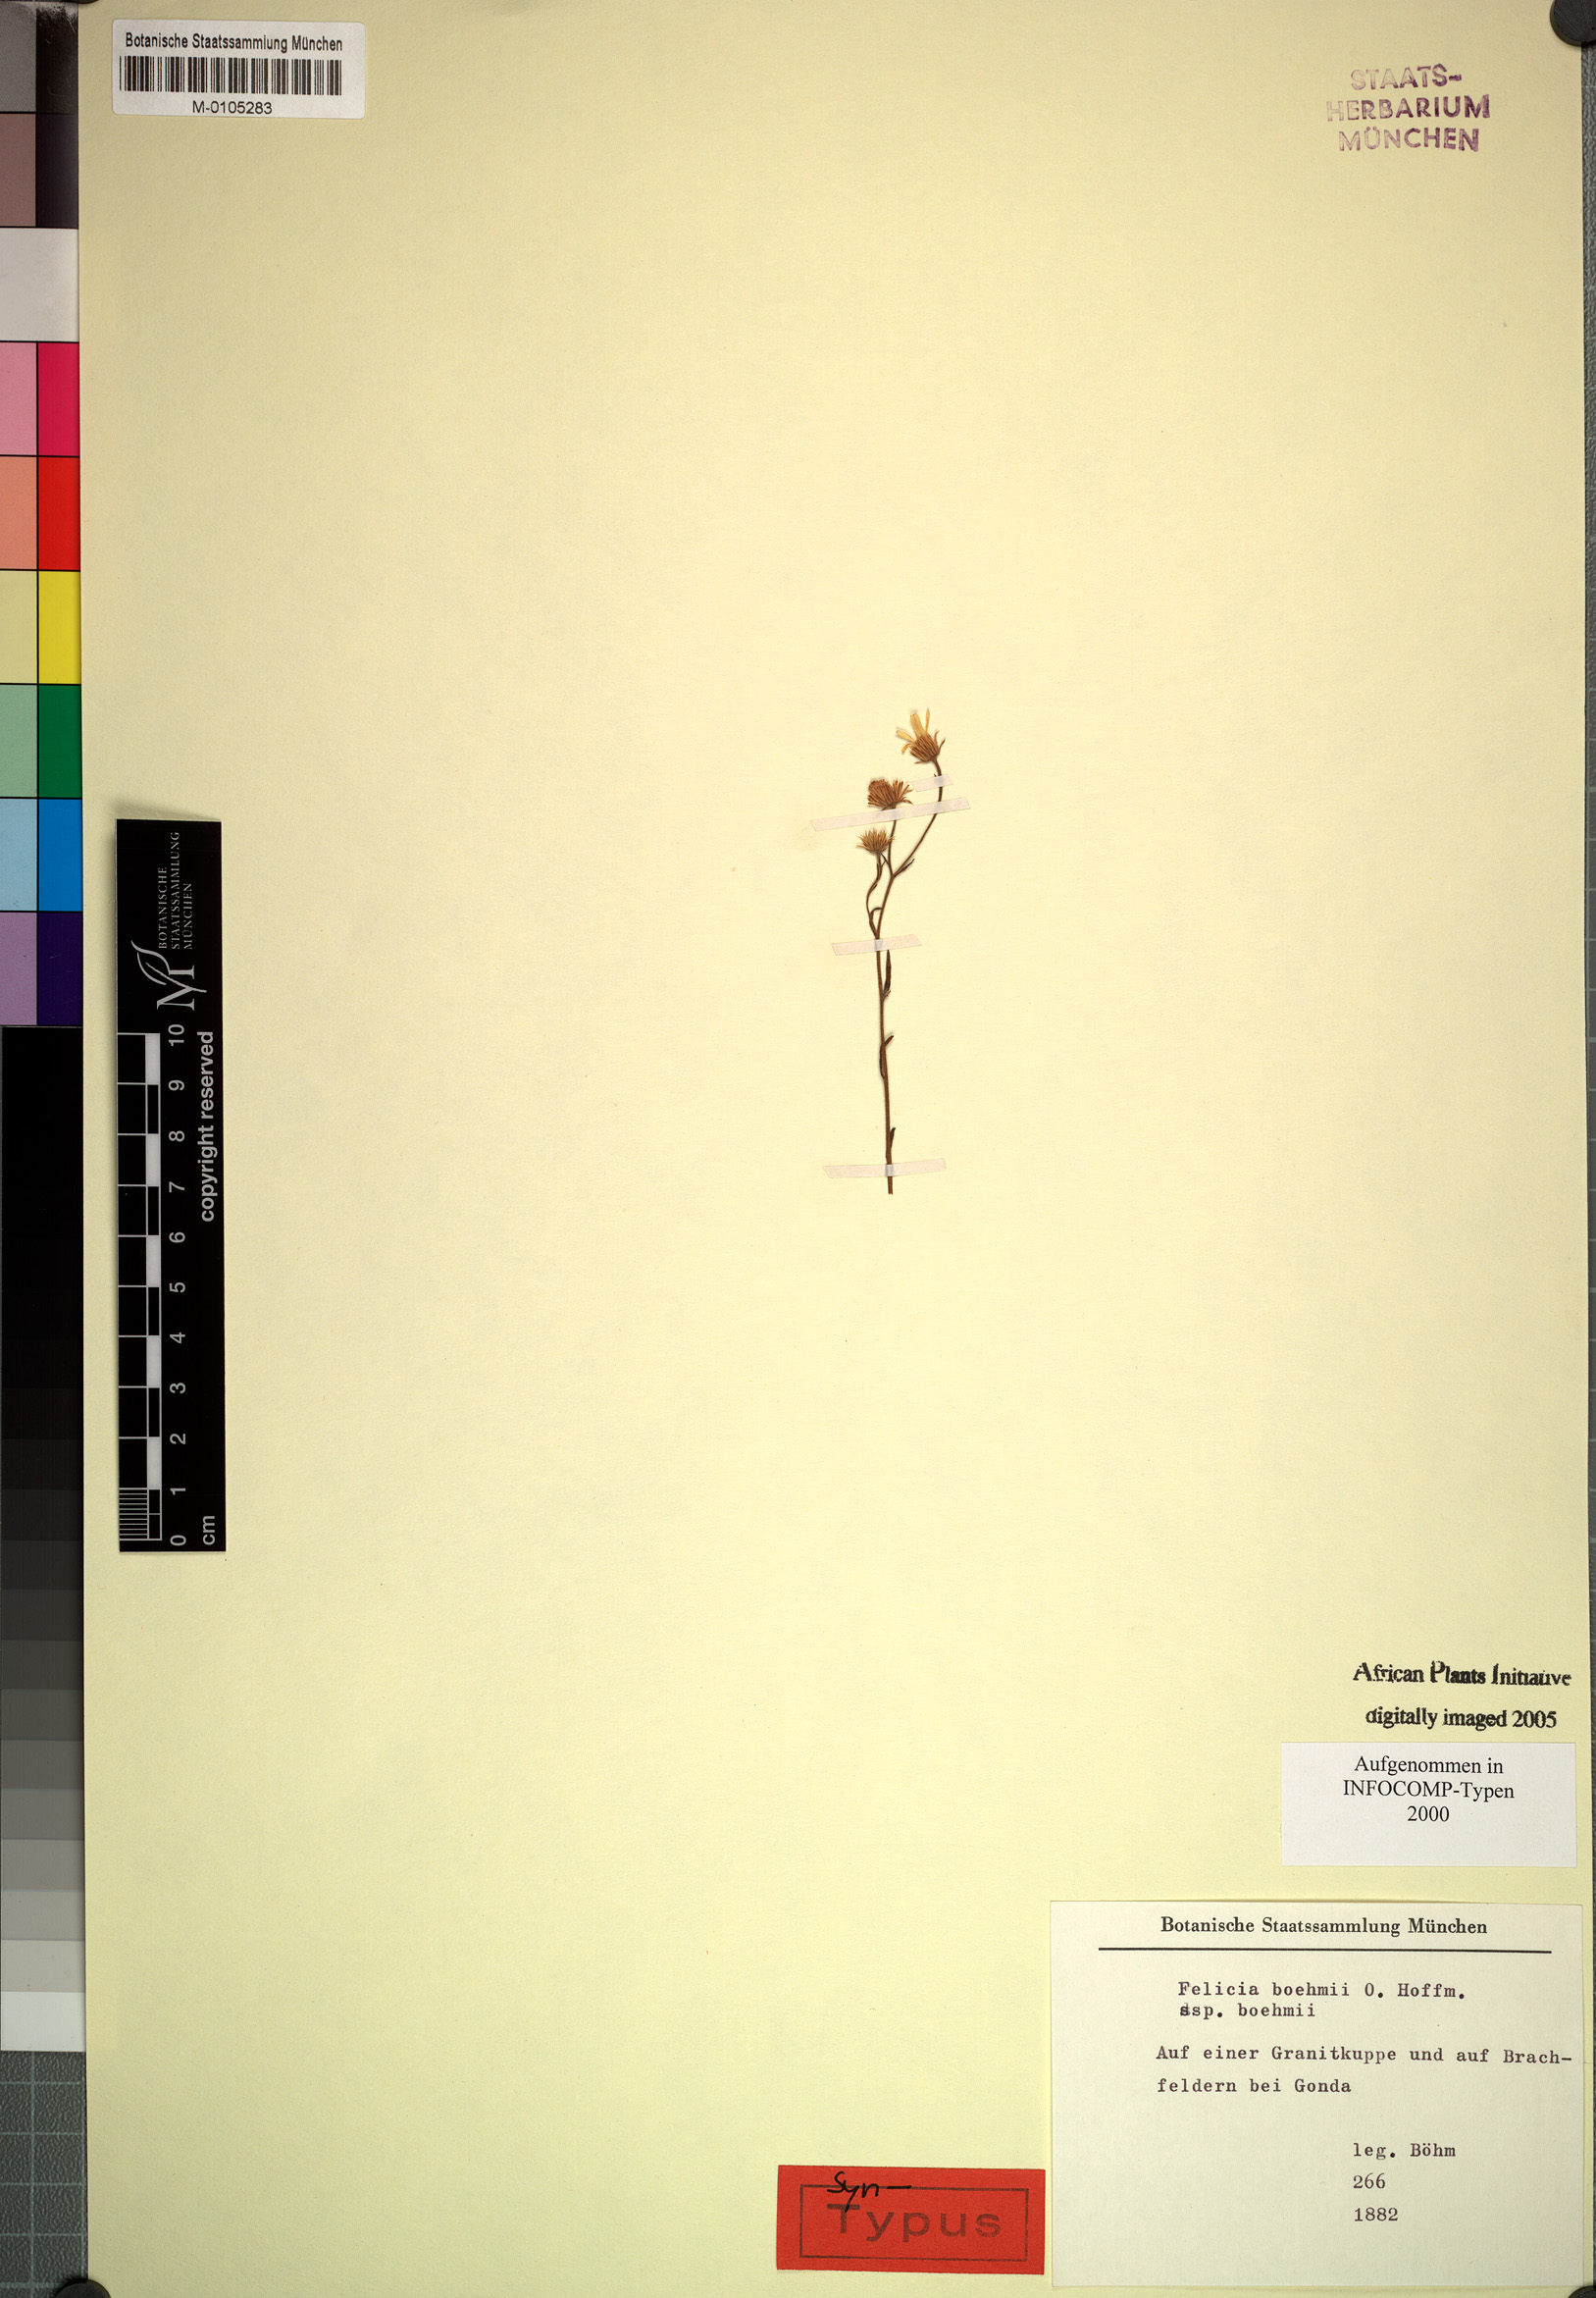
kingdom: Plantae
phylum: Tracheophyta
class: Magnoliopsida
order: Asterales
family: Asteraceae
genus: Felicia
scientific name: Felicia boehmii
